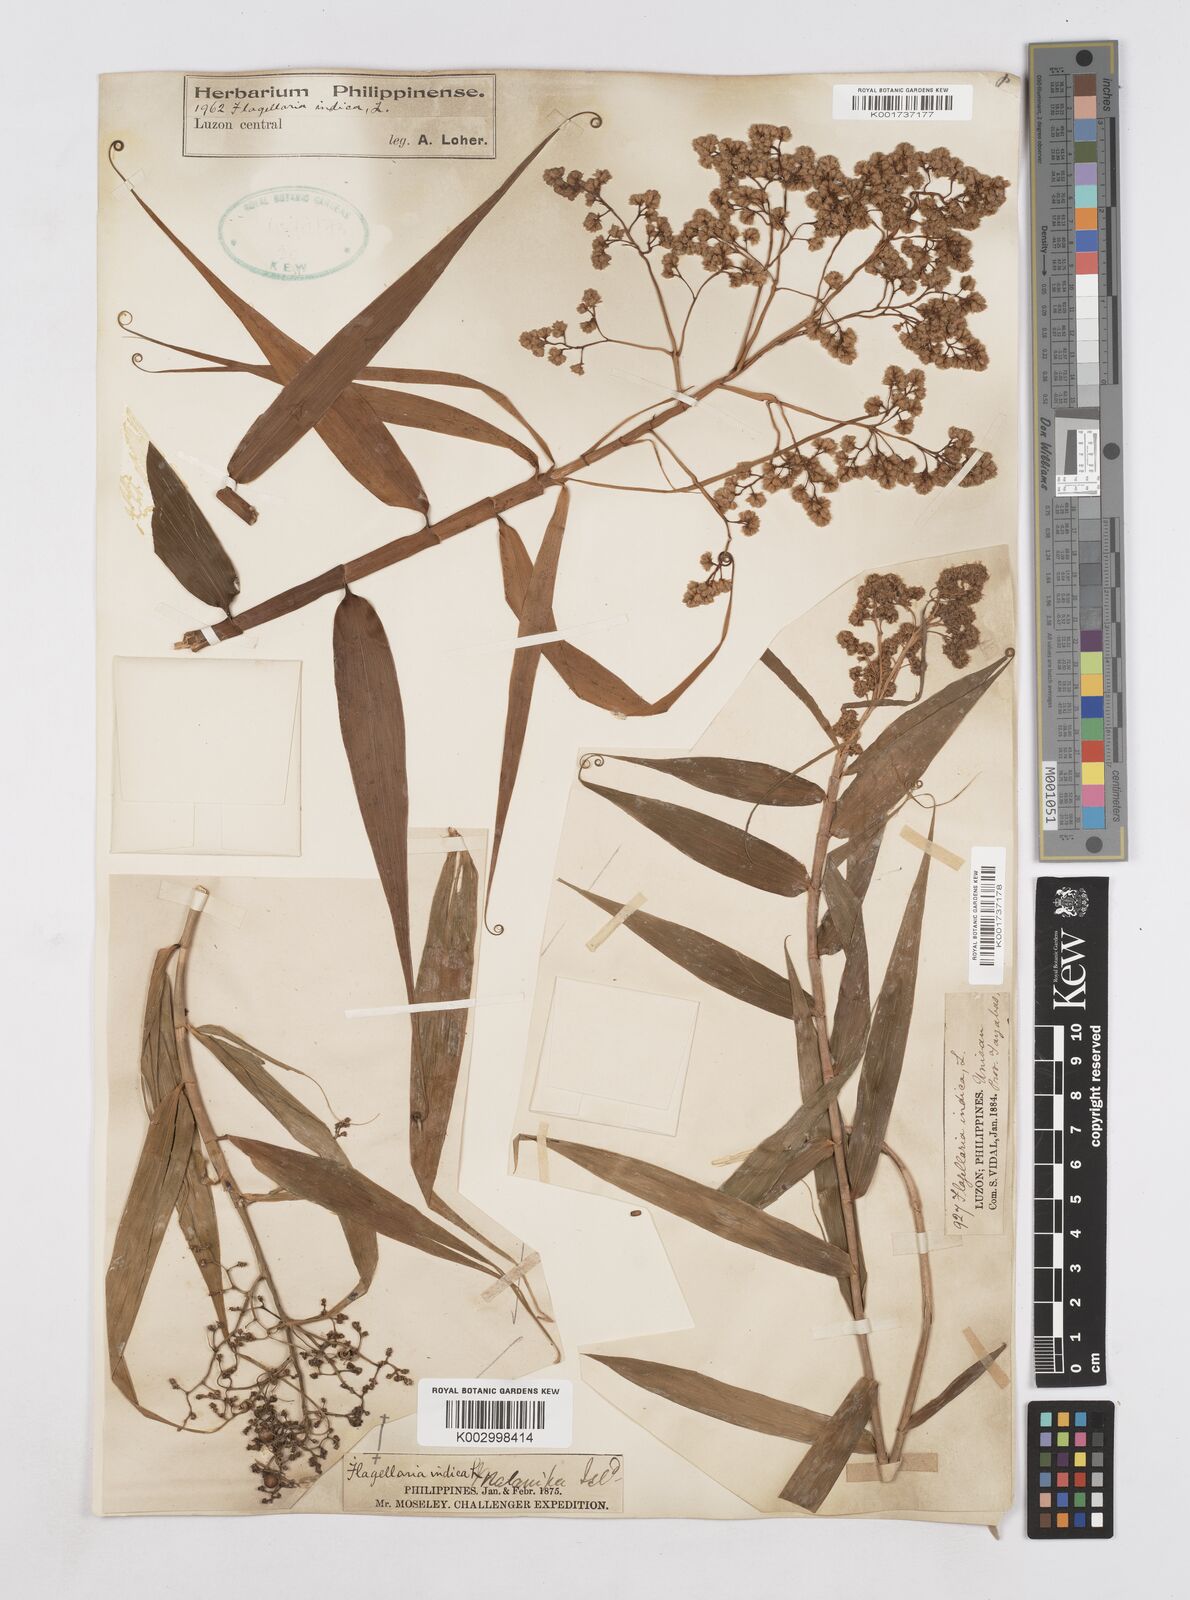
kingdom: Plantae
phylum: Tracheophyta
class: Liliopsida
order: Poales
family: Flagellariaceae
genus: Flagellaria
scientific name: Flagellaria indica
